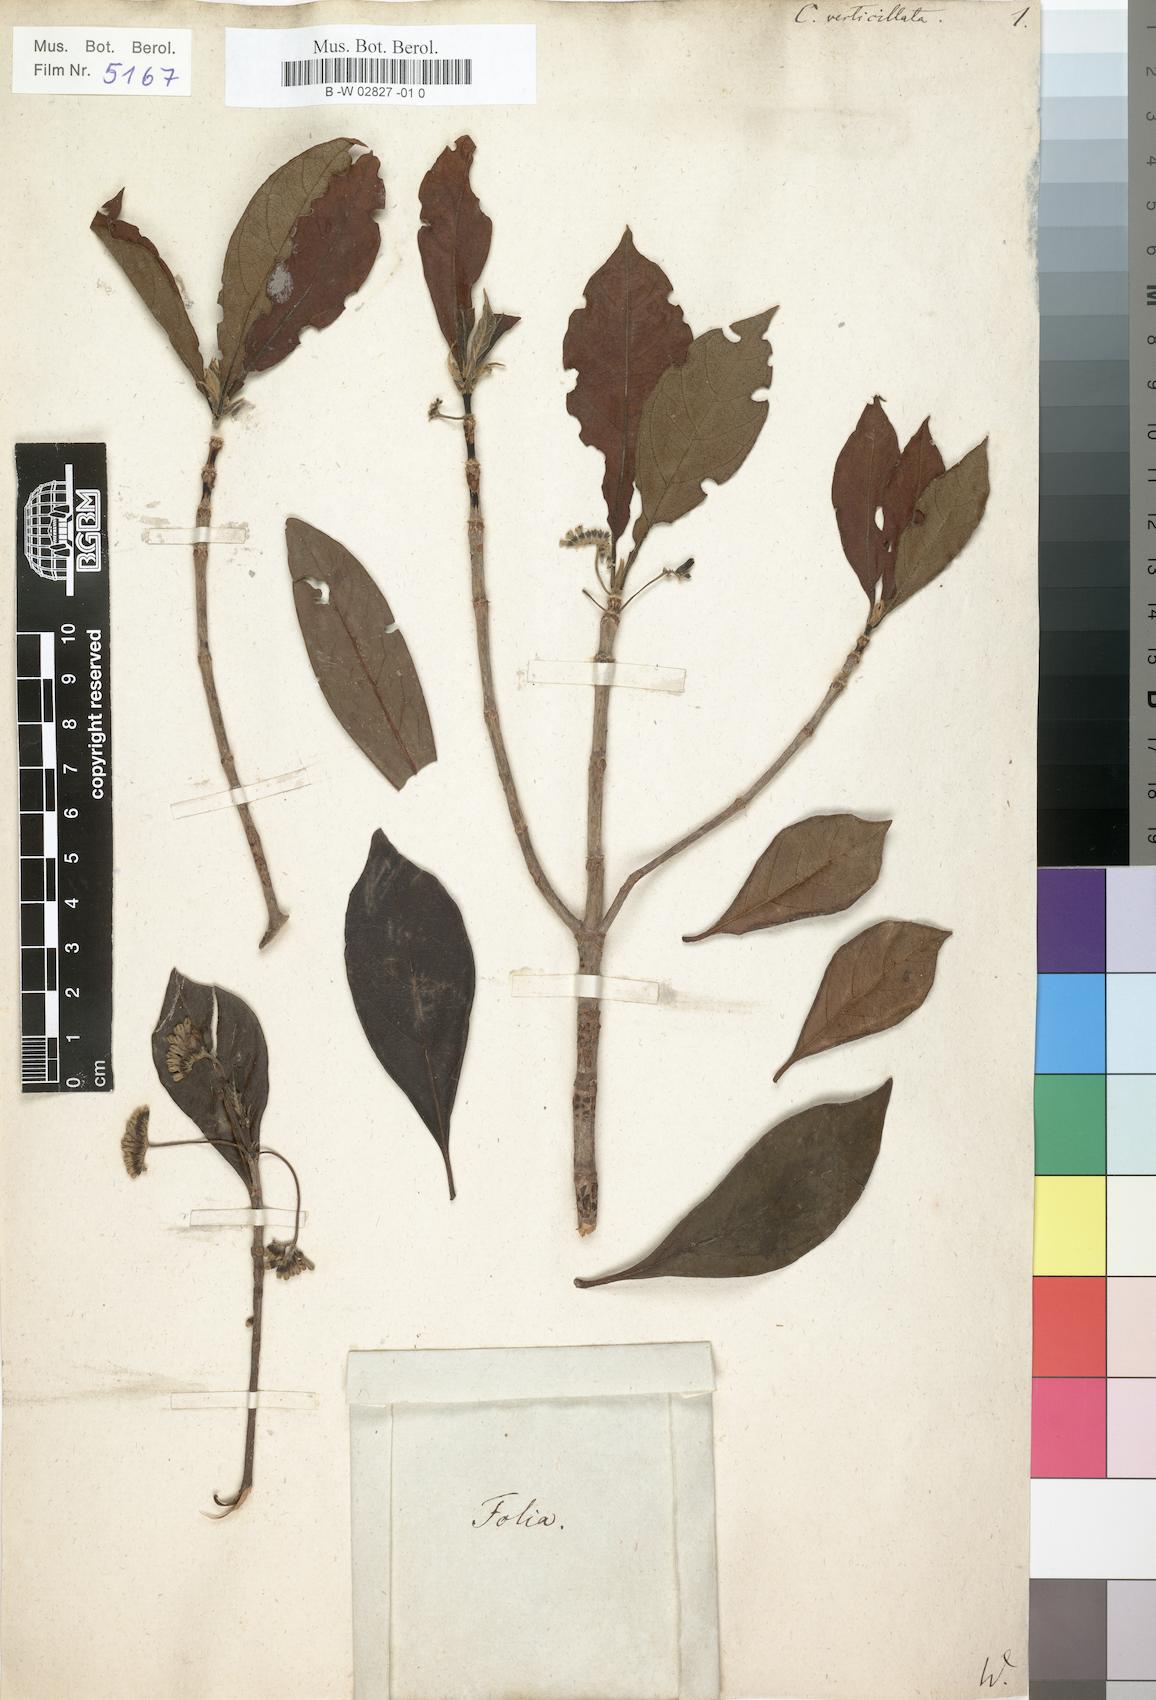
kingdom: Plantae
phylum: Tracheophyta
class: Magnoliopsida
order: Gentianales
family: Rubiaceae
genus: Danais
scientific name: Danais fragrans
